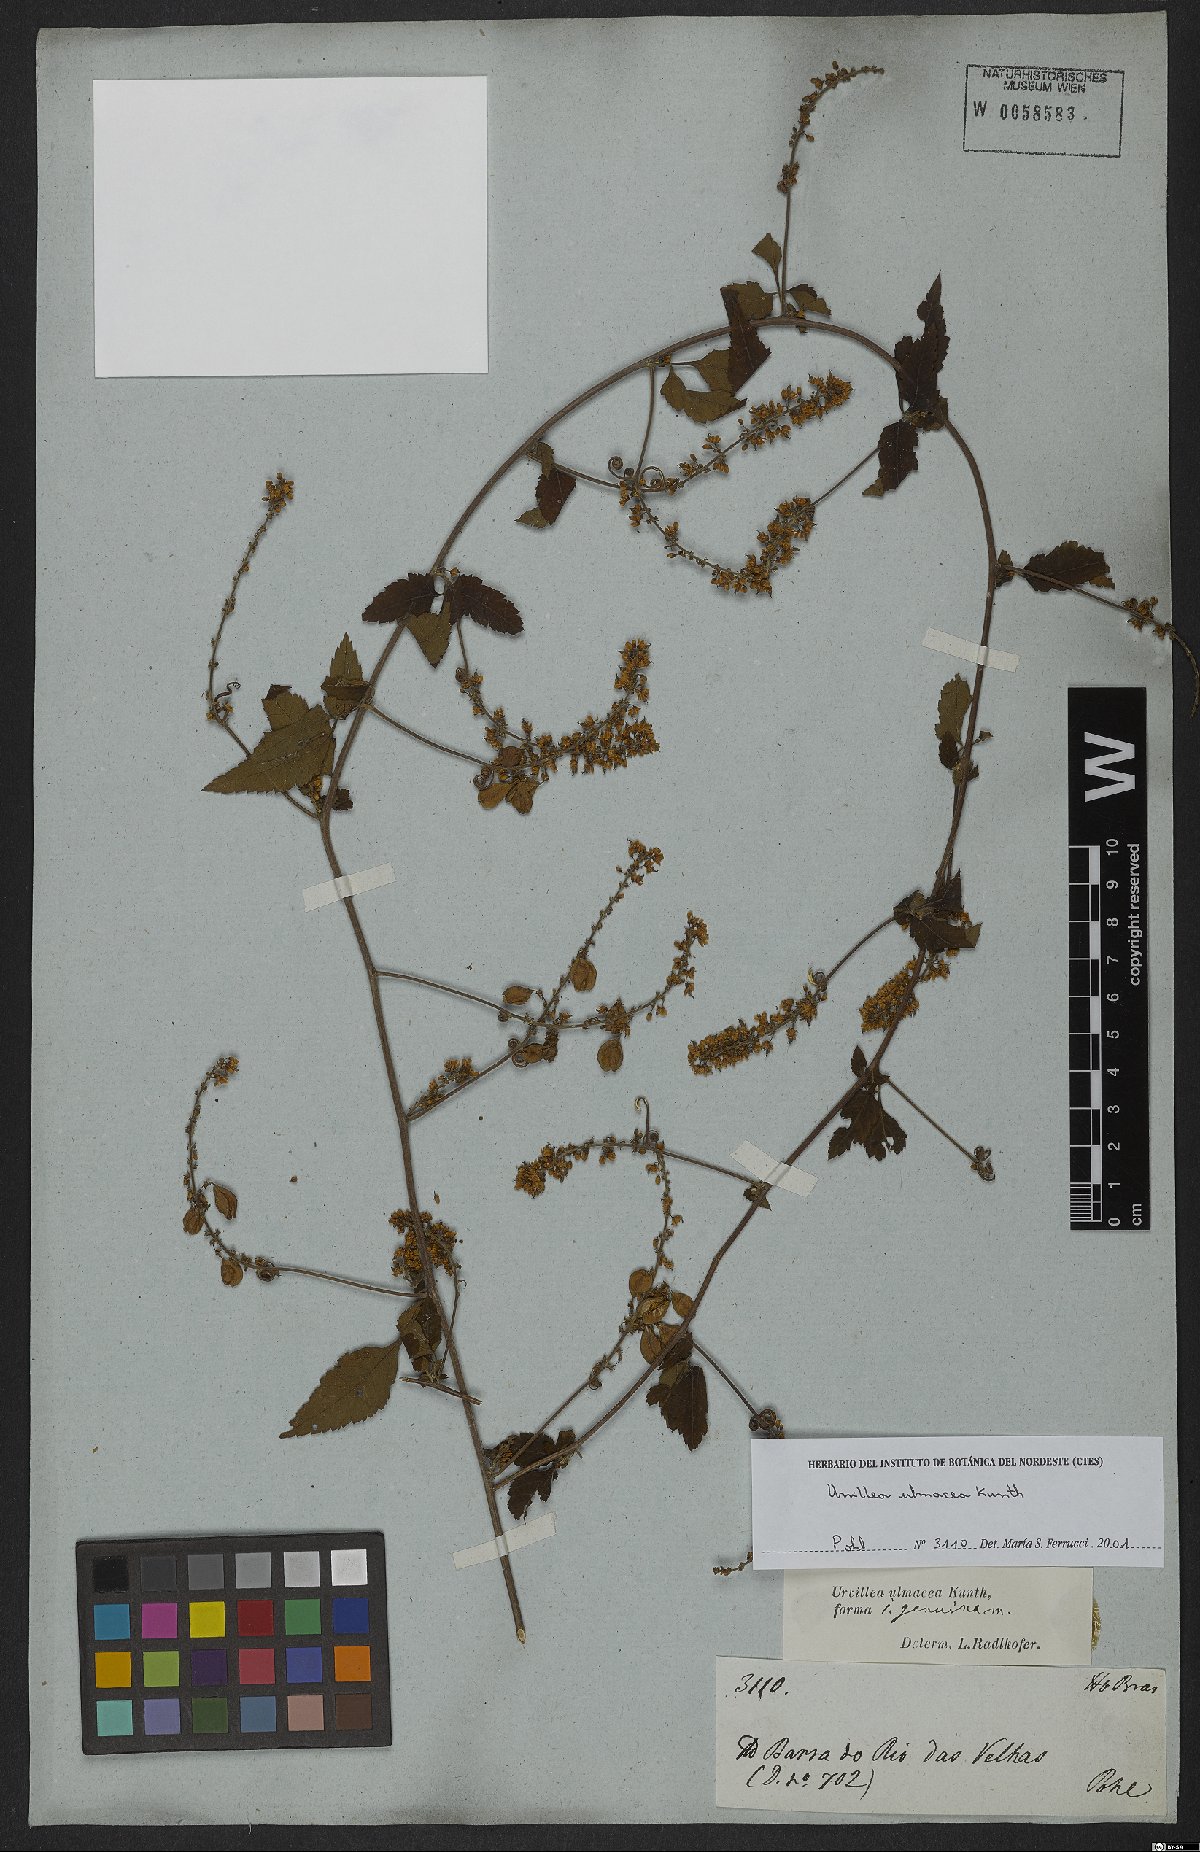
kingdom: Plantae
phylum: Tracheophyta
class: Magnoliopsida
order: Sapindales
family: Sapindaceae
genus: Urvillea
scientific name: Urvillea ulmacea
